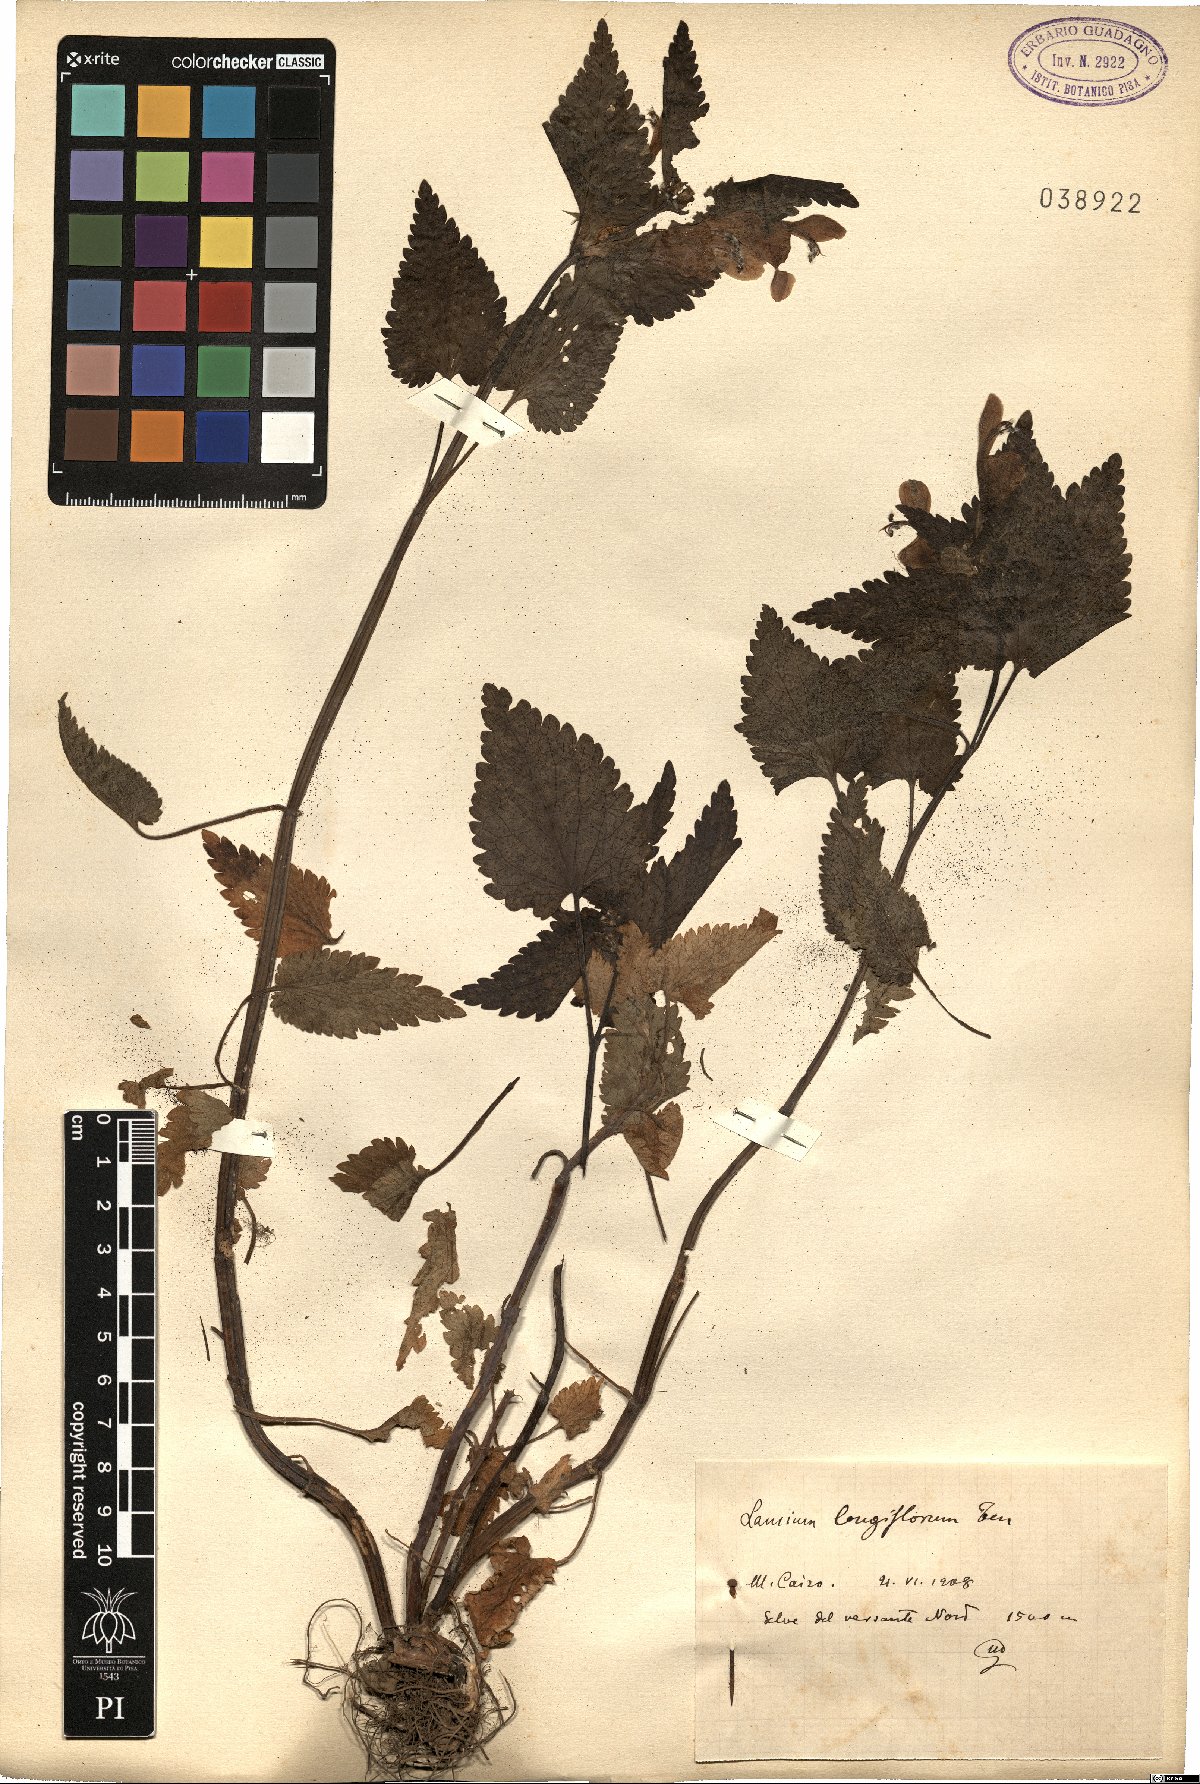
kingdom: Plantae
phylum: Tracheophyta
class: Magnoliopsida
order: Lamiales
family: Lamiaceae
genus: Lamium
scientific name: Lamium garganicum
